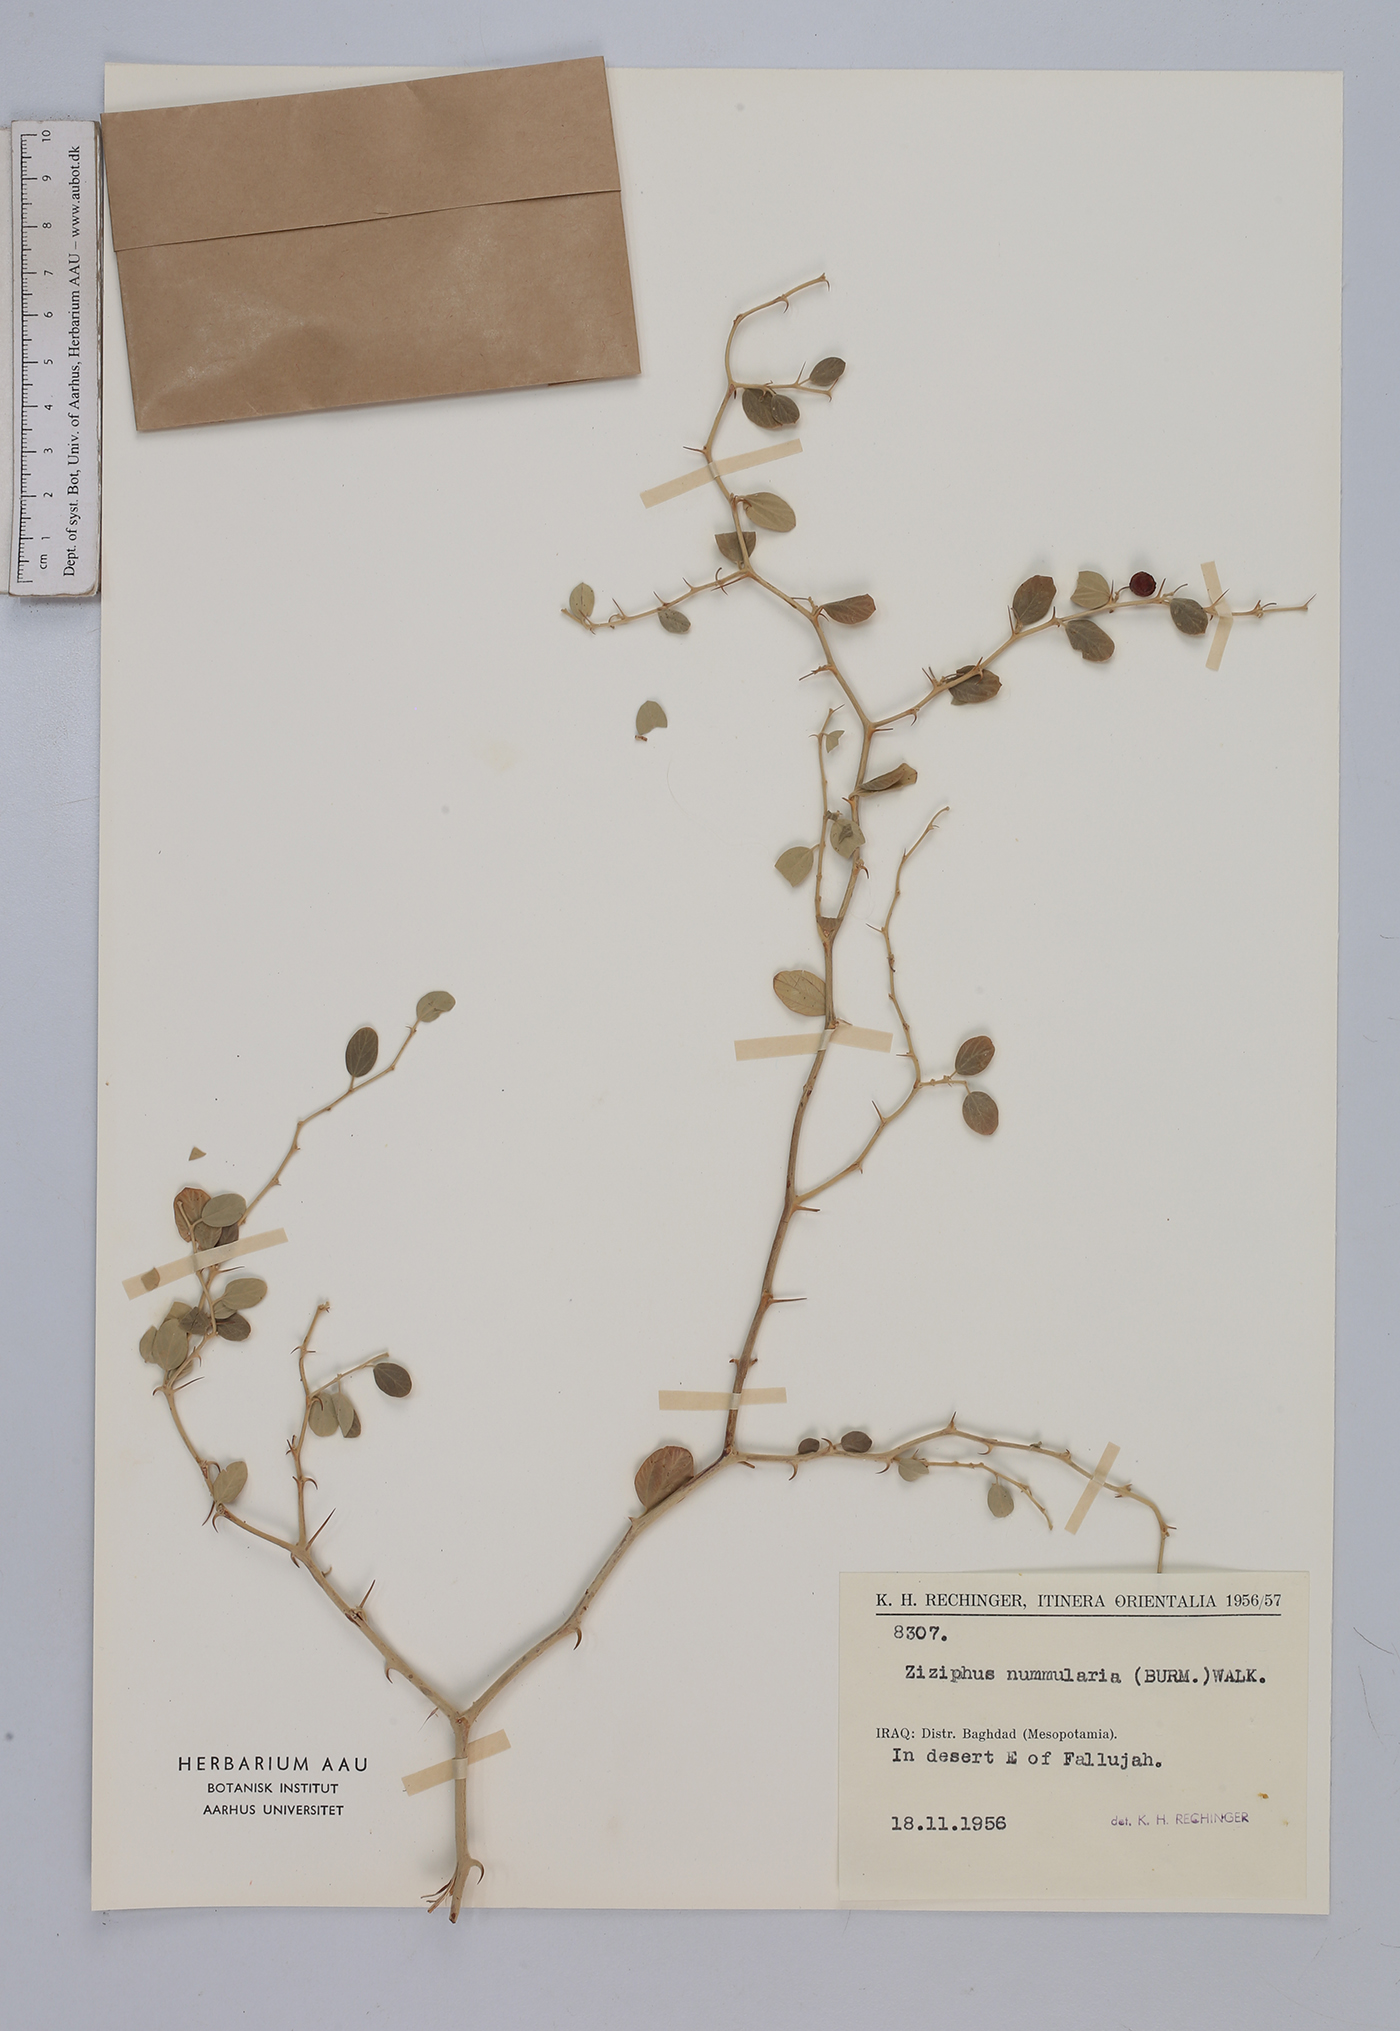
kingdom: Plantae
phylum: Tracheophyta
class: Magnoliopsida
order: Rosales
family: Rhamnaceae
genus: Ziziphus
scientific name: Ziziphus nummularia
